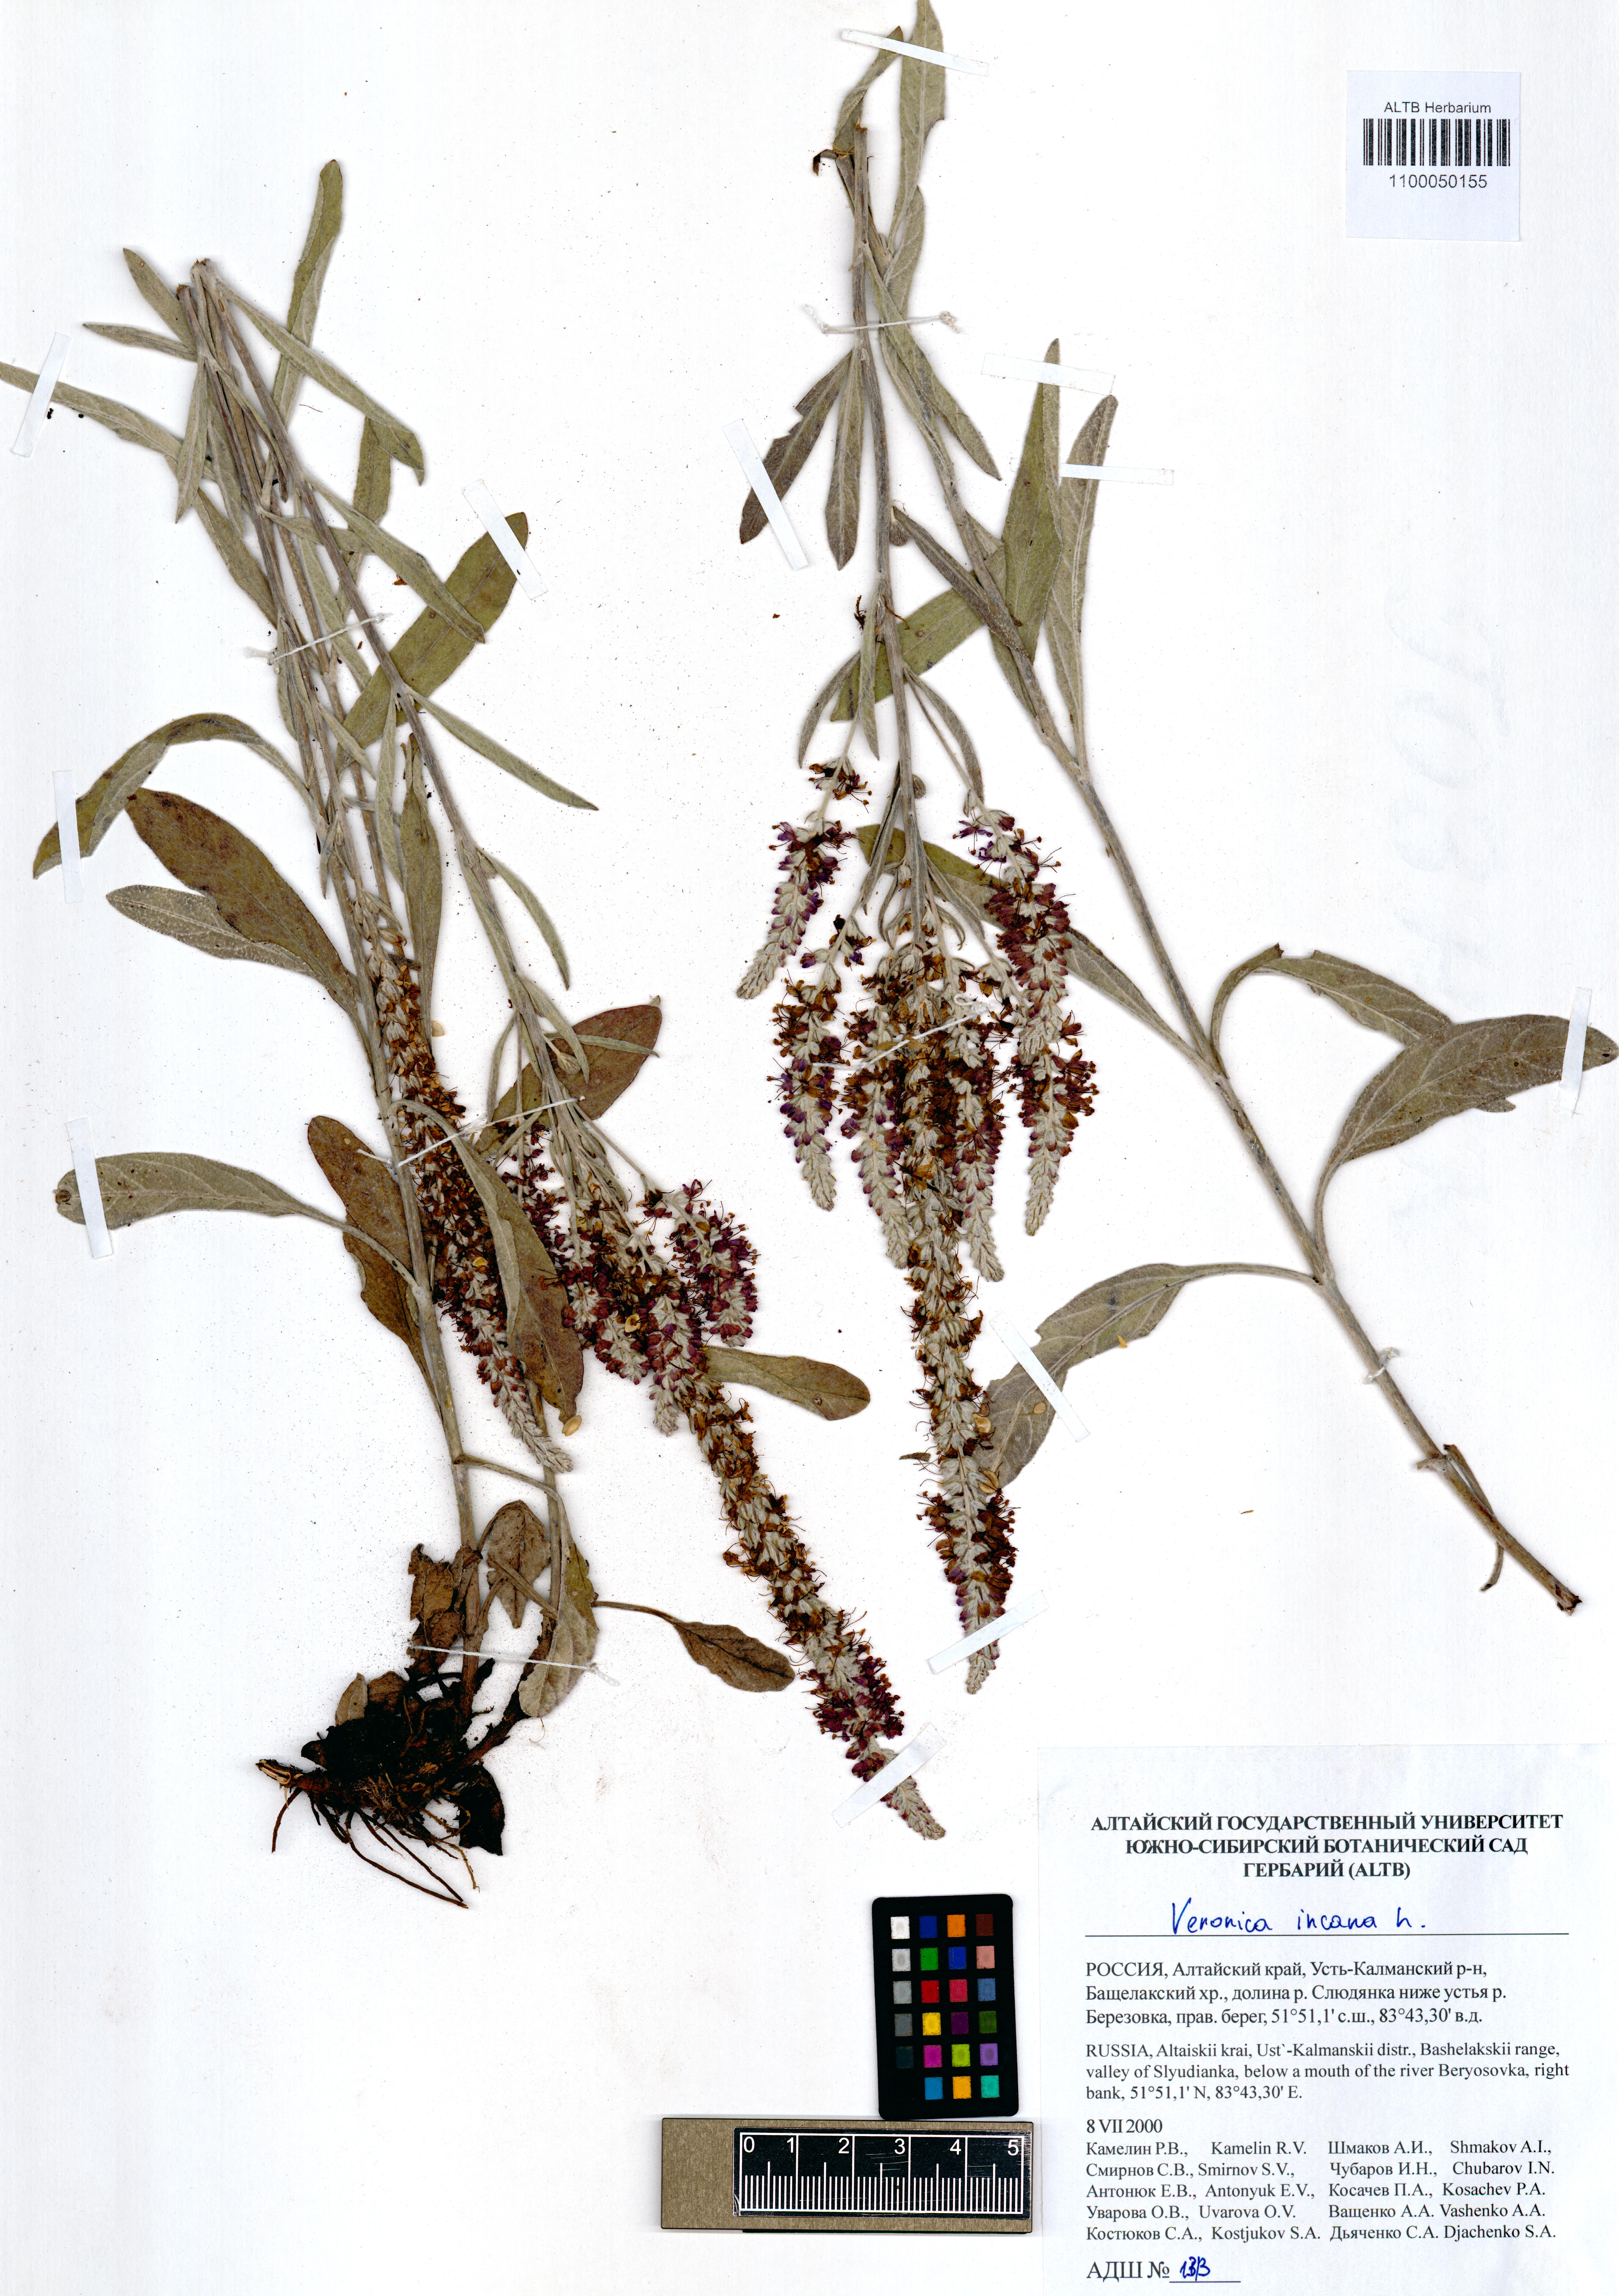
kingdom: Plantae
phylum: Tracheophyta
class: Magnoliopsida
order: Lamiales
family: Plantaginaceae
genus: Veronica
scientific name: Veronica incana
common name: Silver speedwell
